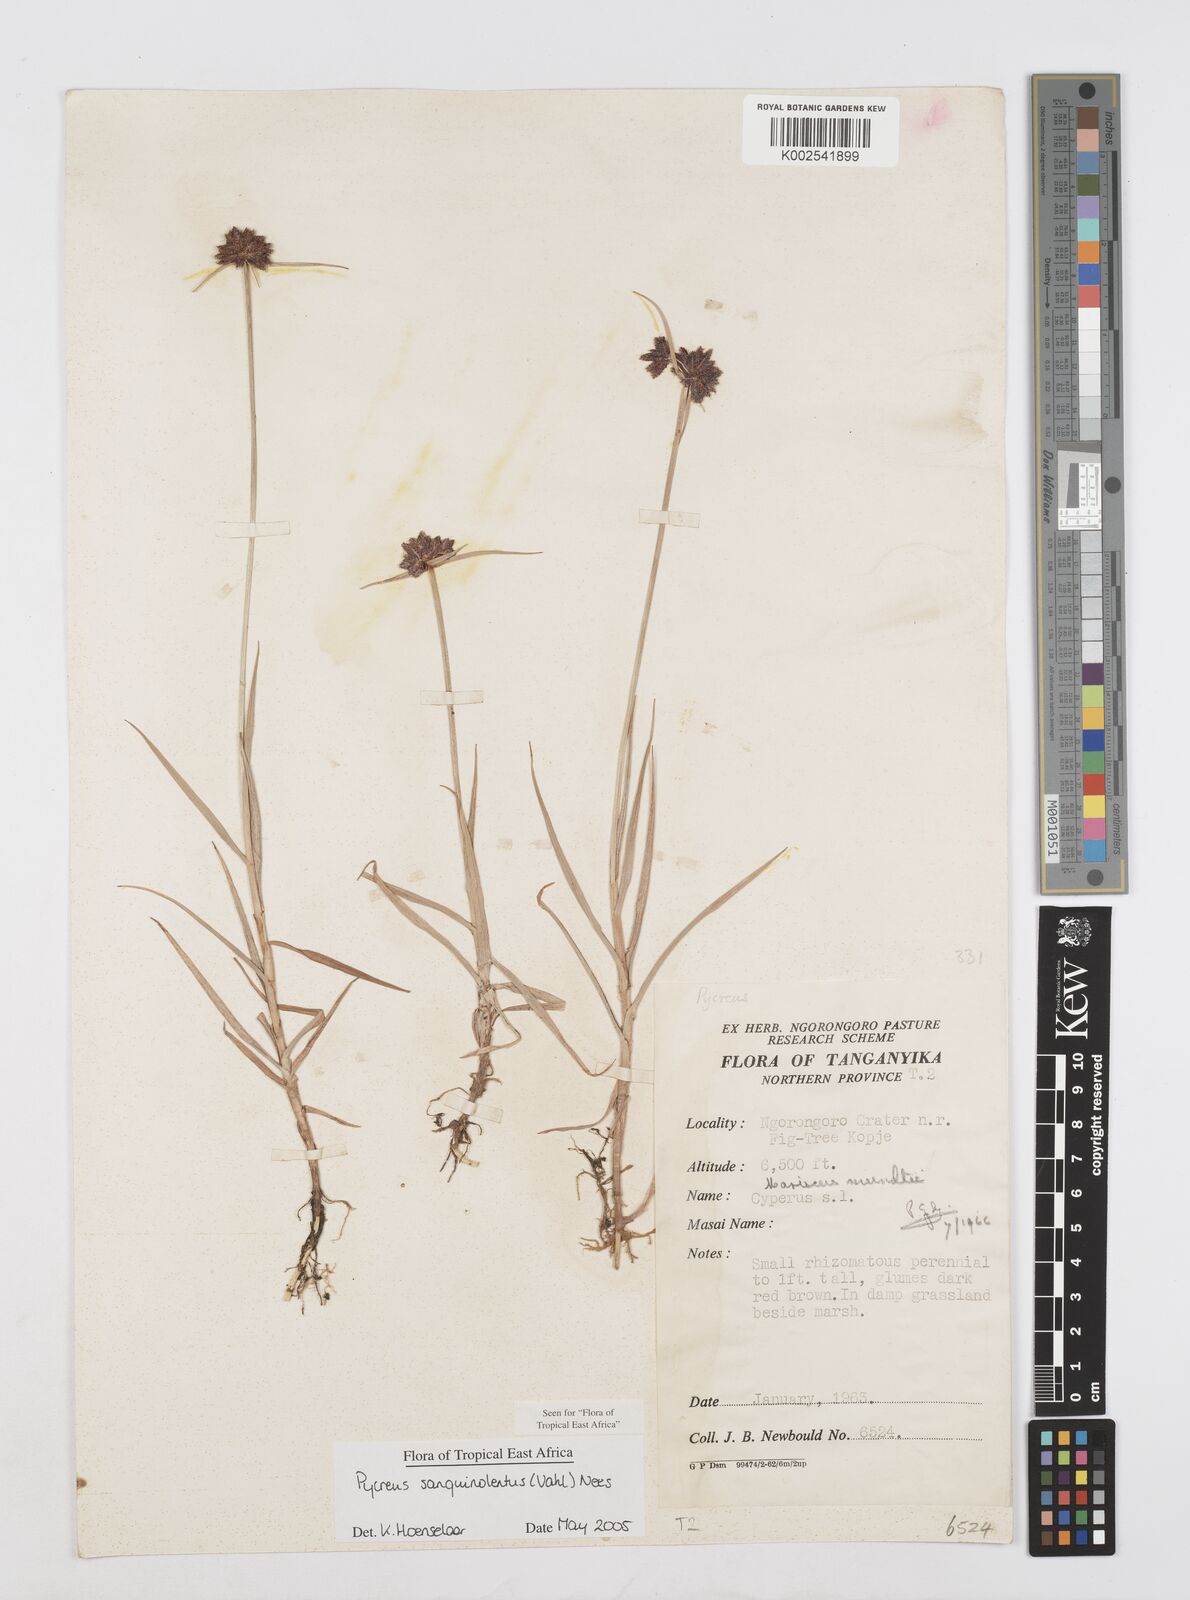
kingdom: Plantae
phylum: Tracheophyta
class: Liliopsida
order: Poales
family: Cyperaceae
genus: Cyperus
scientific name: Cyperus sanguinolentus
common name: Purpleglume flatsedge
